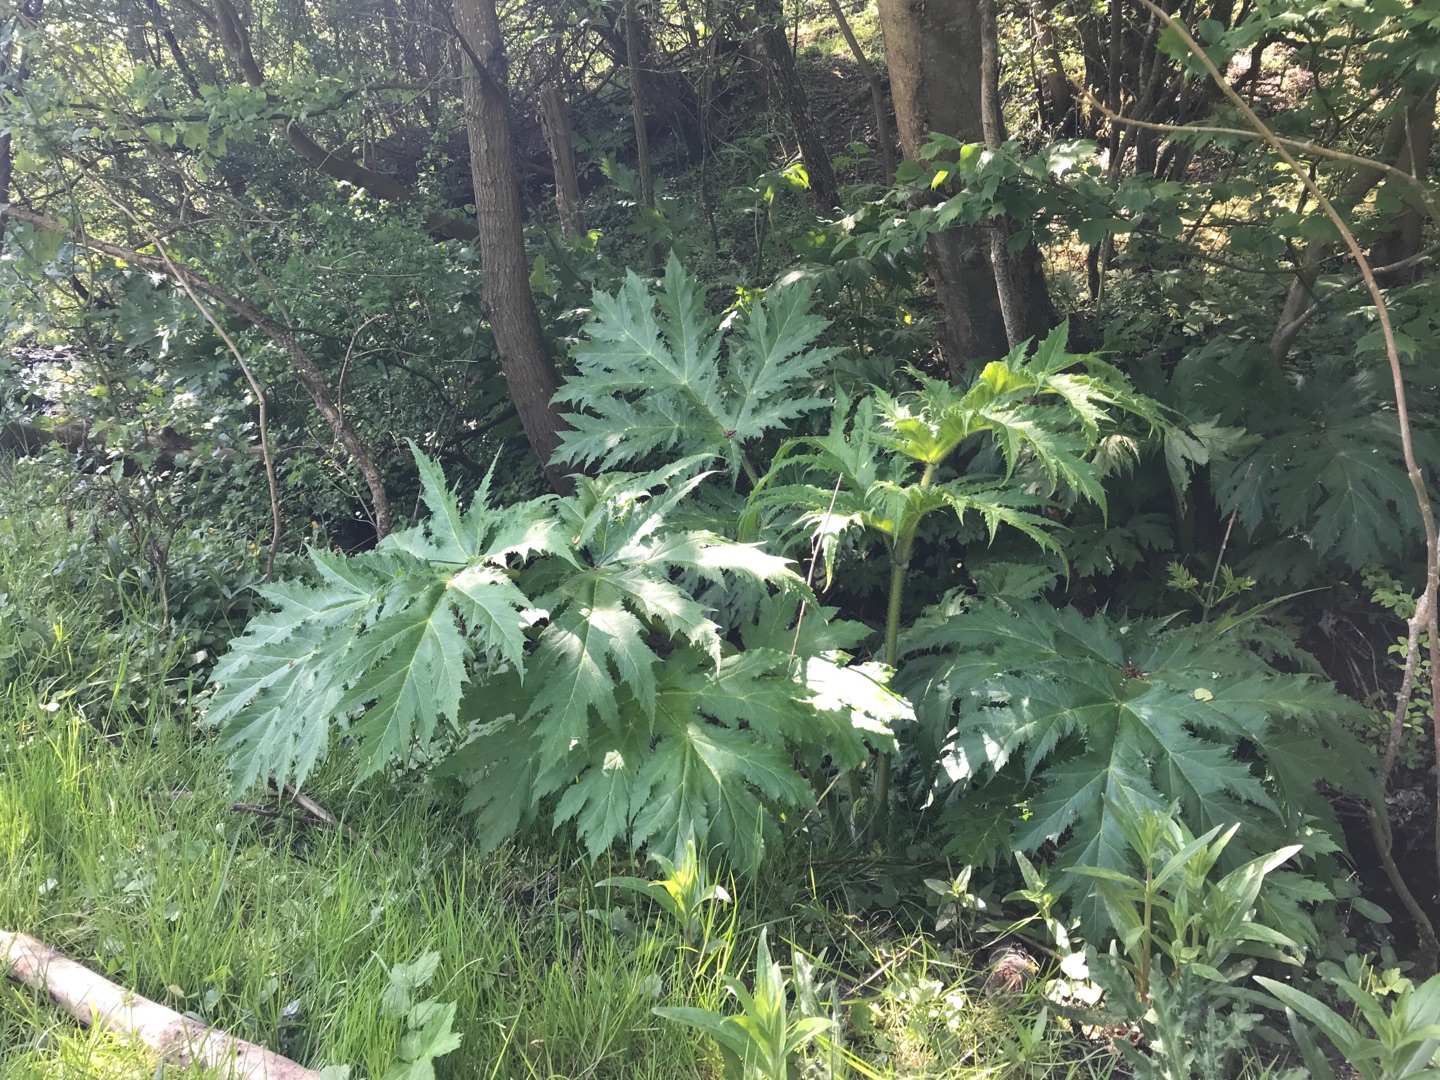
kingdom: Plantae
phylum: Tracheophyta
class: Magnoliopsida
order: Apiales
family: Apiaceae
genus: Heracleum
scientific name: Heracleum mantegazzianum
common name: Kæmpe-bjørneklo
